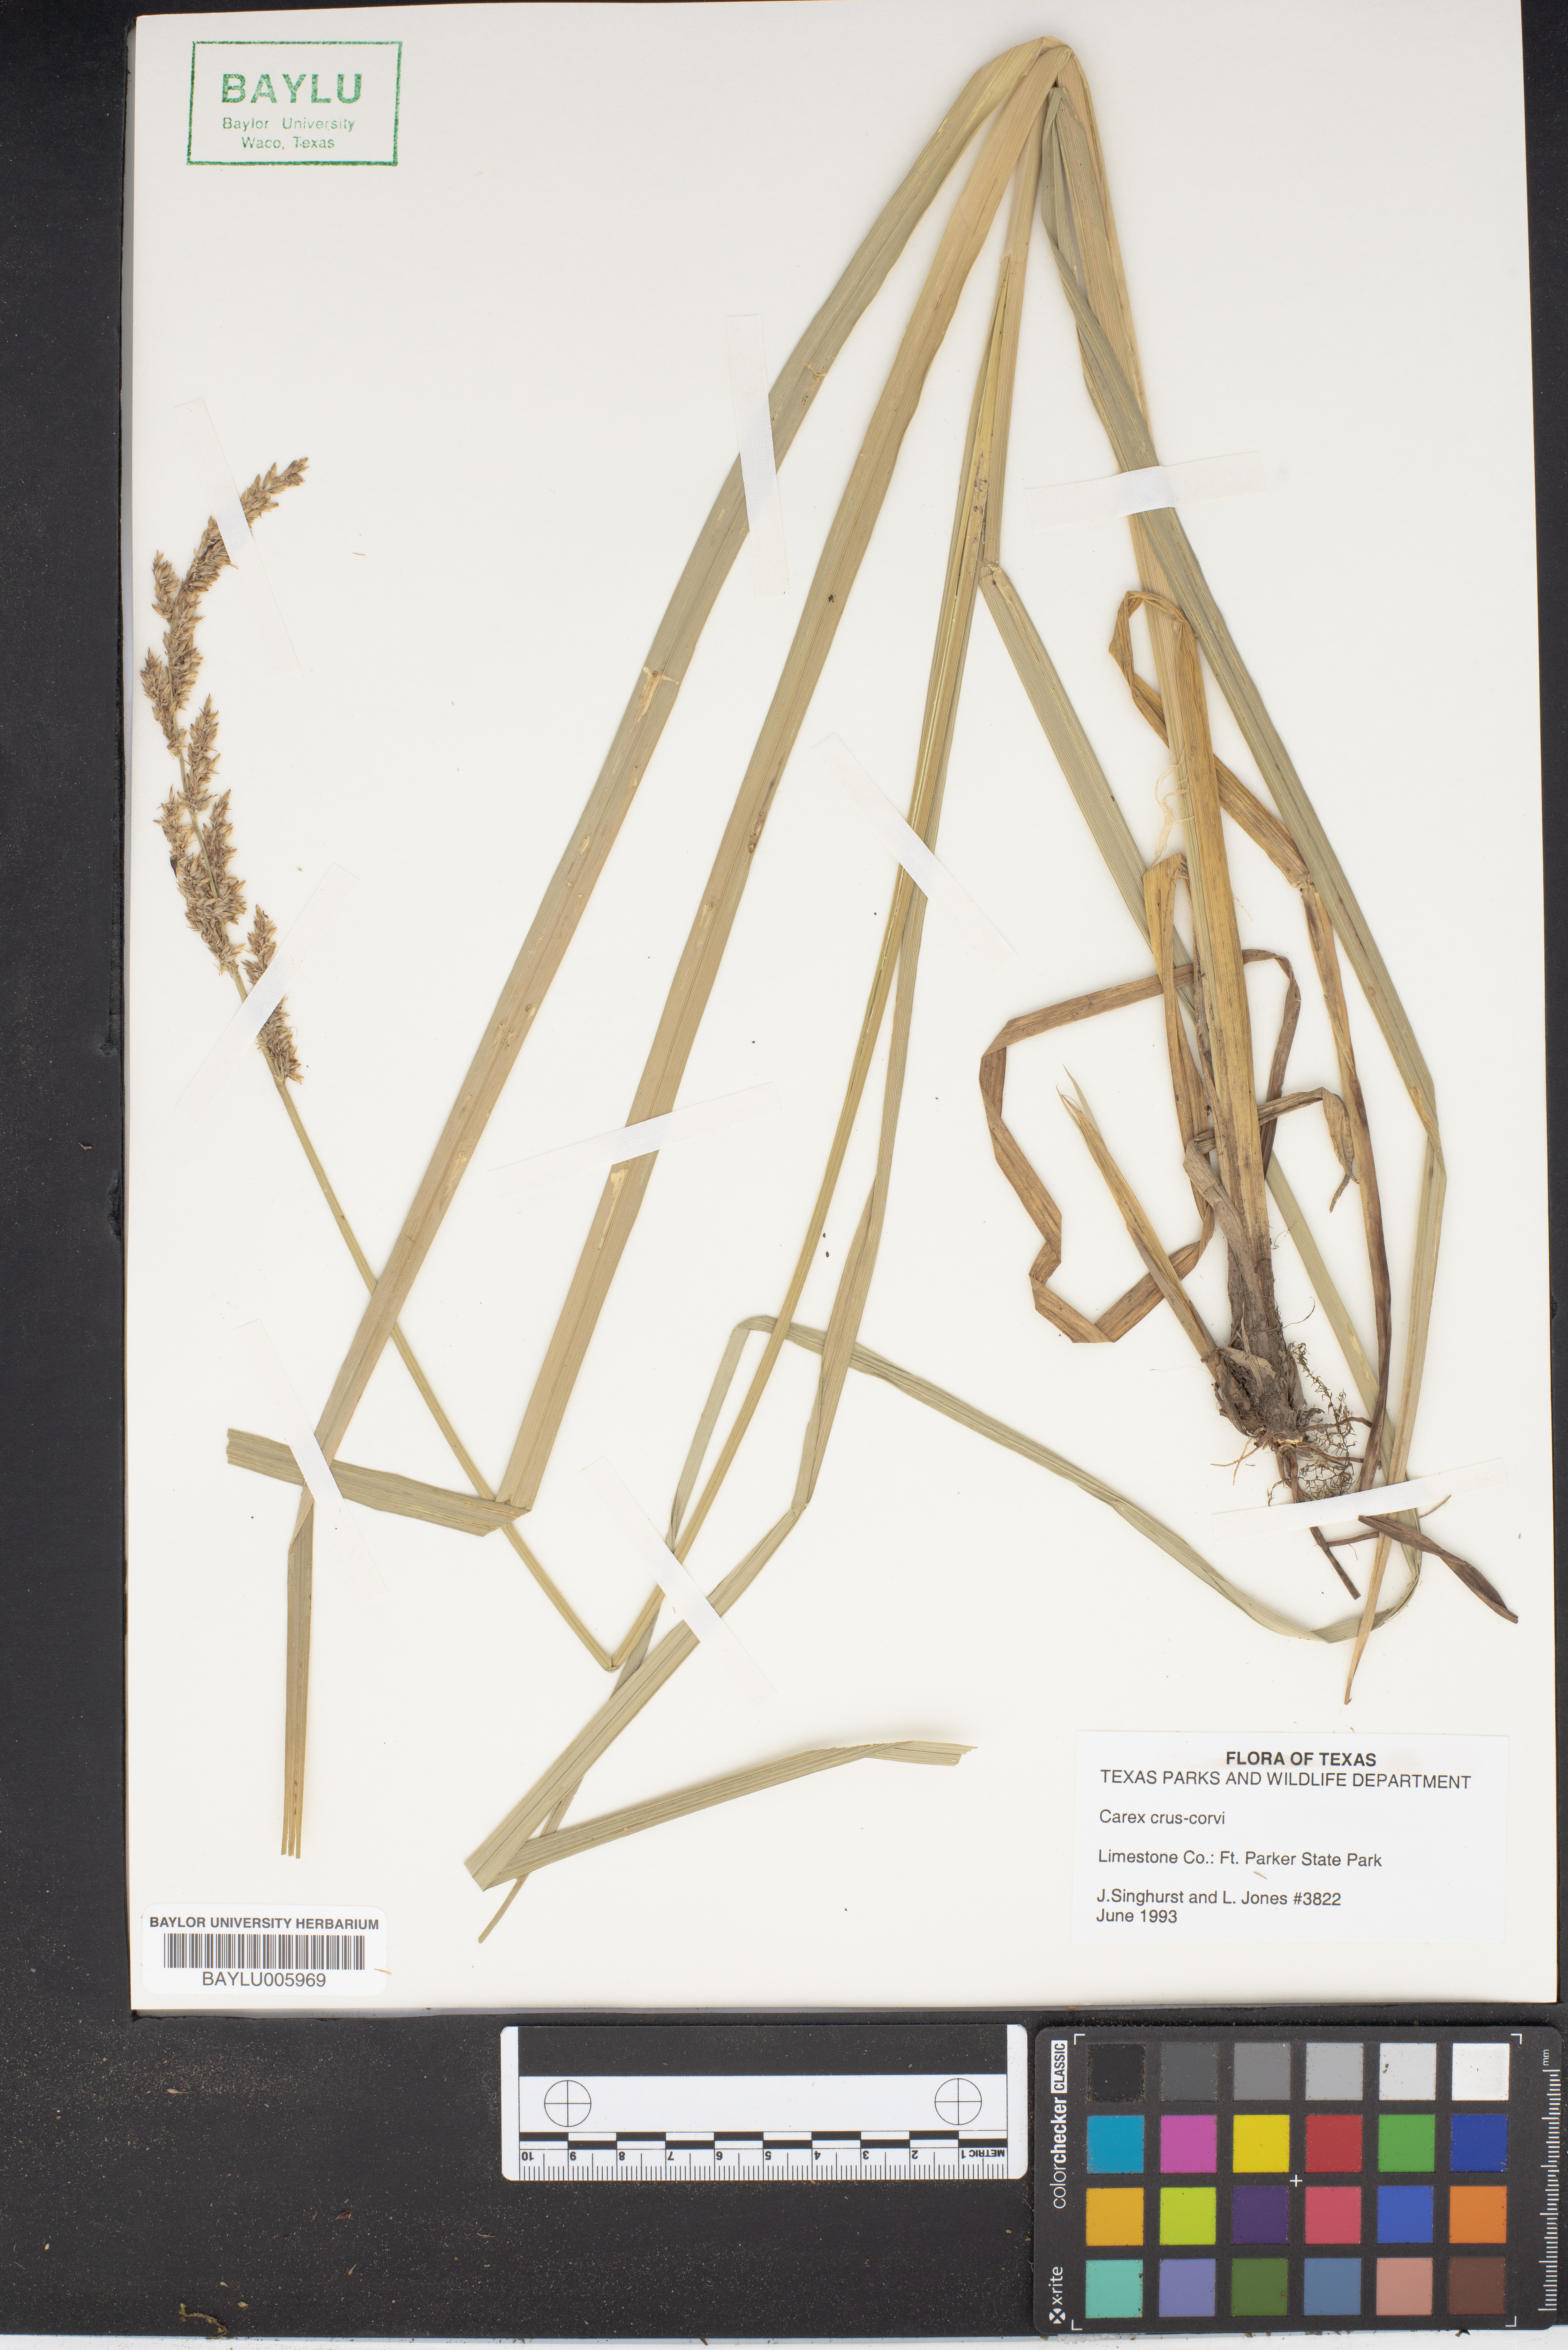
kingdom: Plantae
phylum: Tracheophyta
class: Liliopsida
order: Poales
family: Cyperaceae
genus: Carex
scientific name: Carex crus-corvi
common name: Crow-spur sedge
